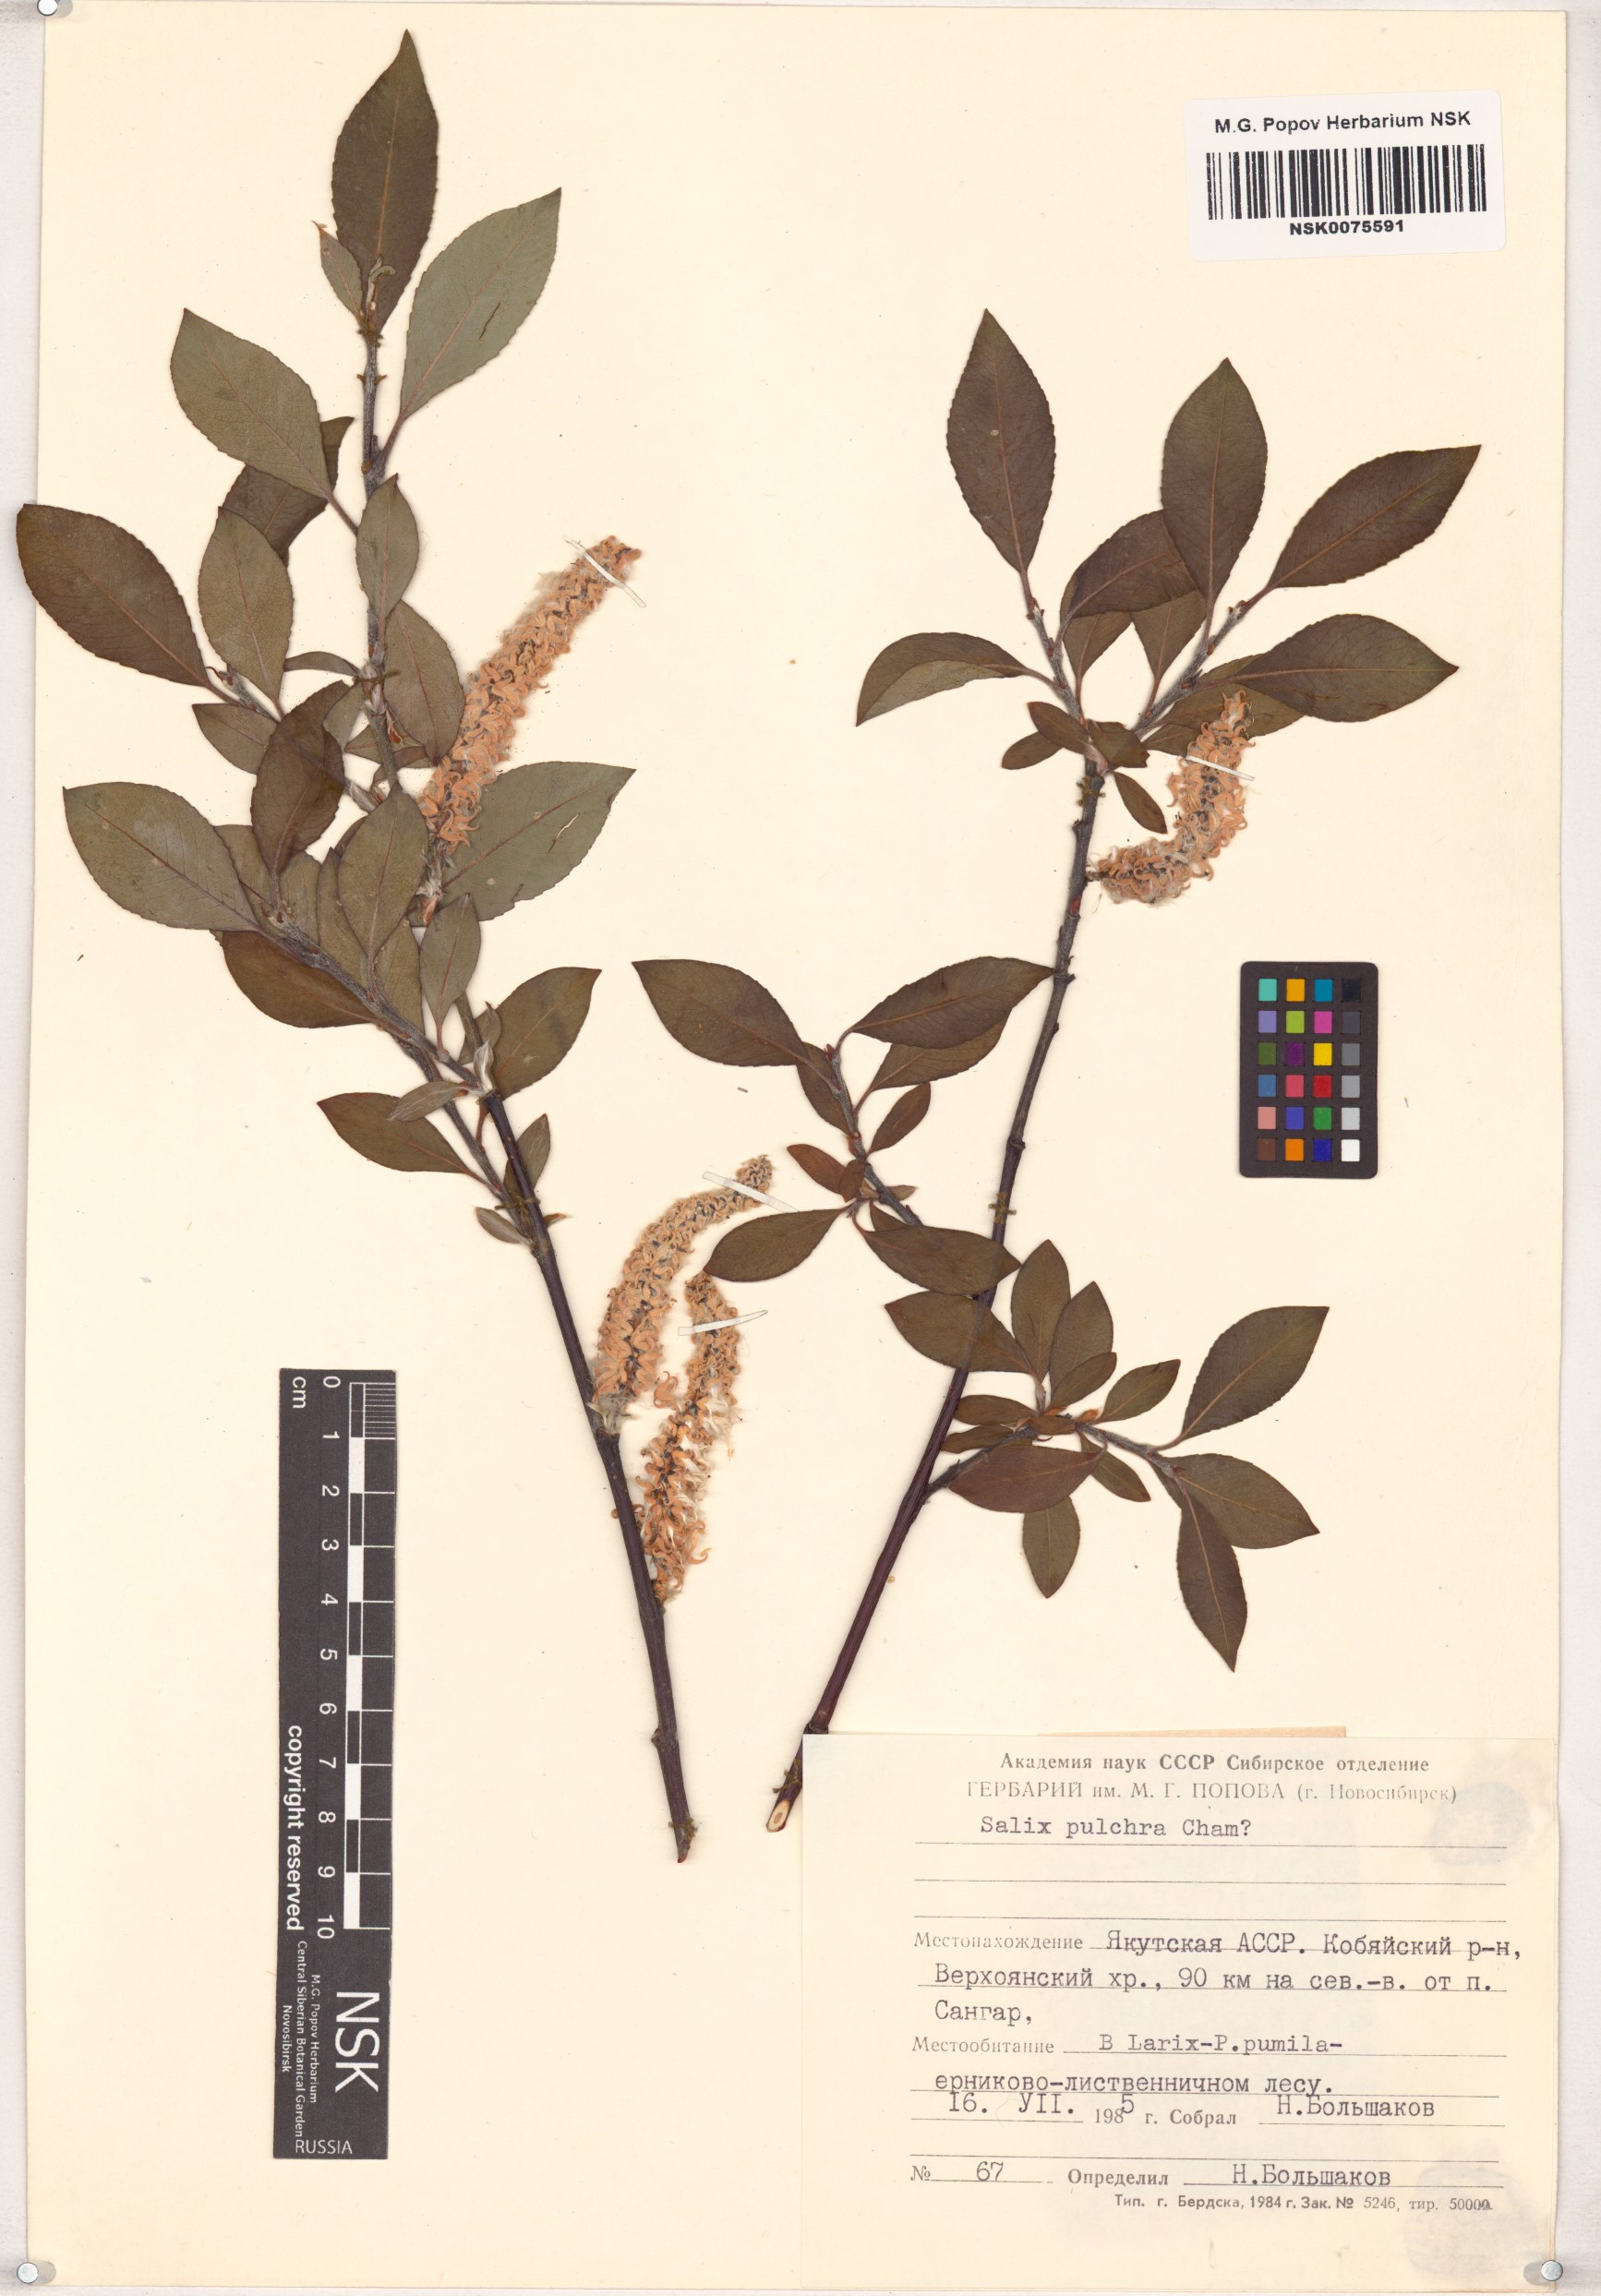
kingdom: Plantae
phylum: Tracheophyta
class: Magnoliopsida
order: Malpighiales
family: Salicaceae
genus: Salix
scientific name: Salix pulchra
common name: Diamond-leaved willow
